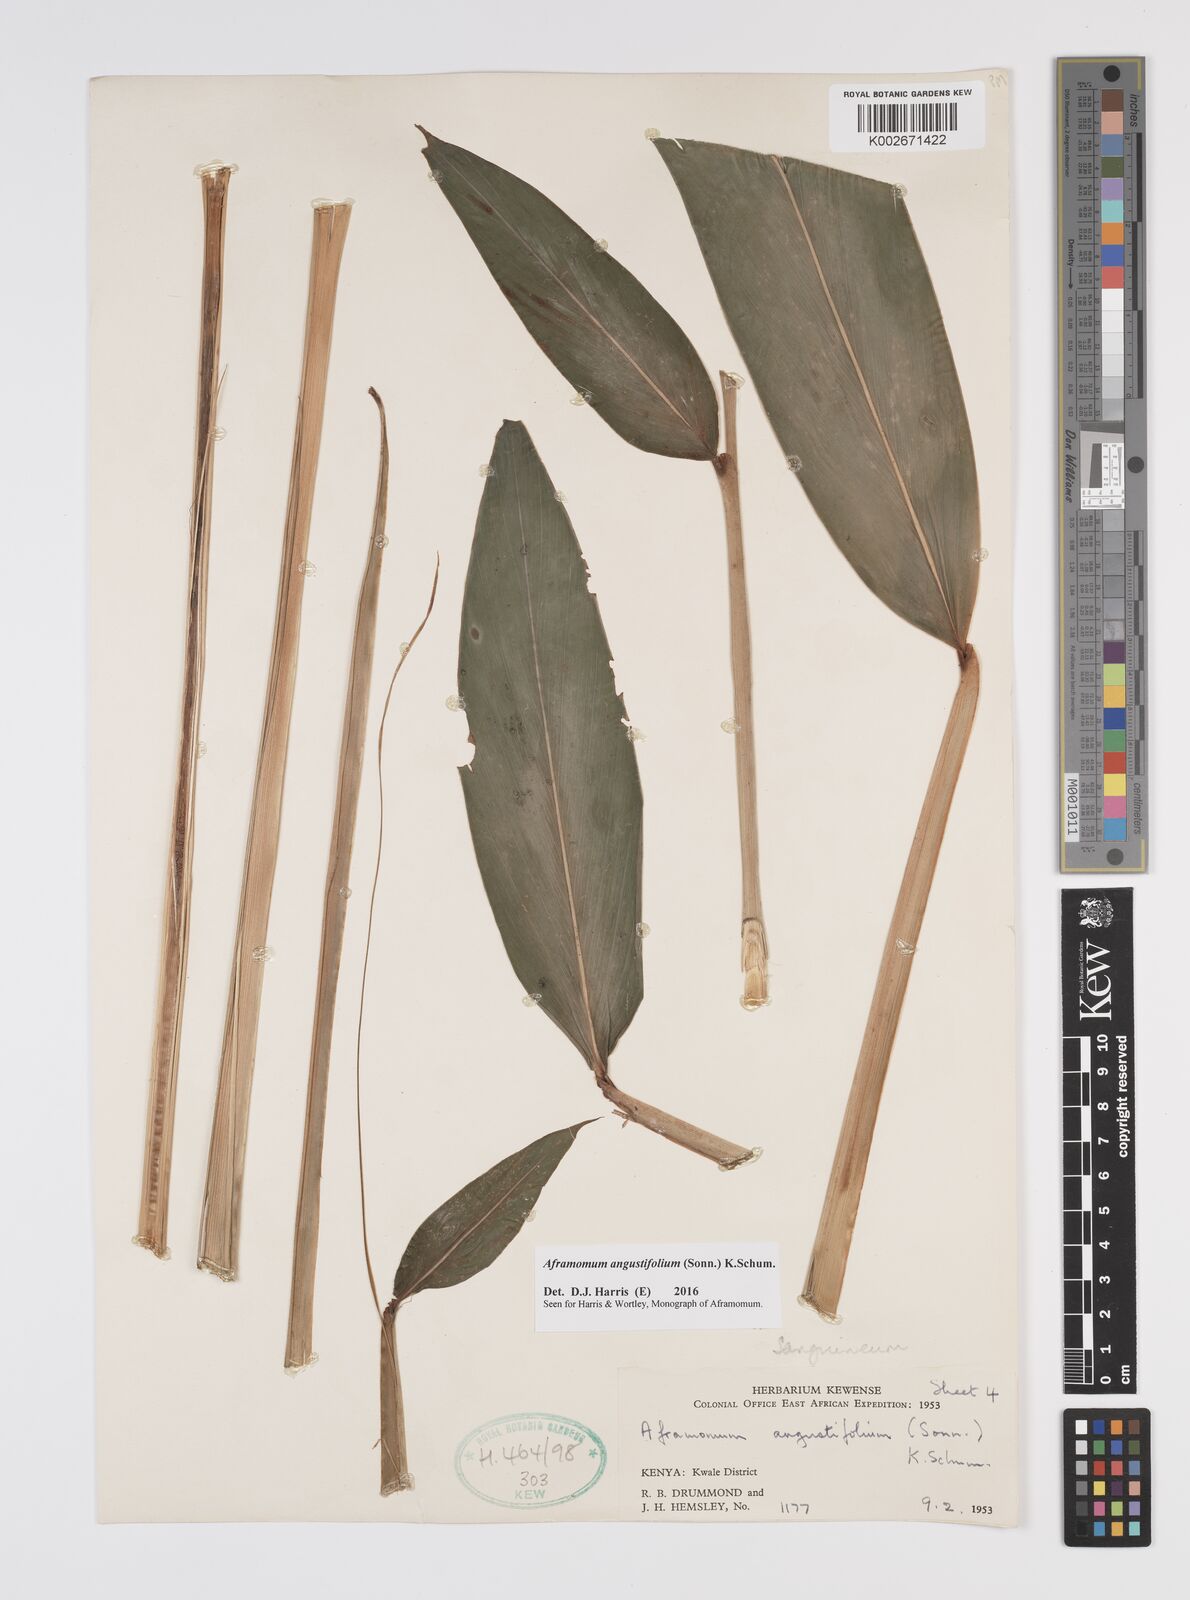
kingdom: Plantae
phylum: Tracheophyta
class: Liliopsida
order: Zingiberales
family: Zingiberaceae
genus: Aframomum
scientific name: Aframomum angustifolium
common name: Guinea grains
